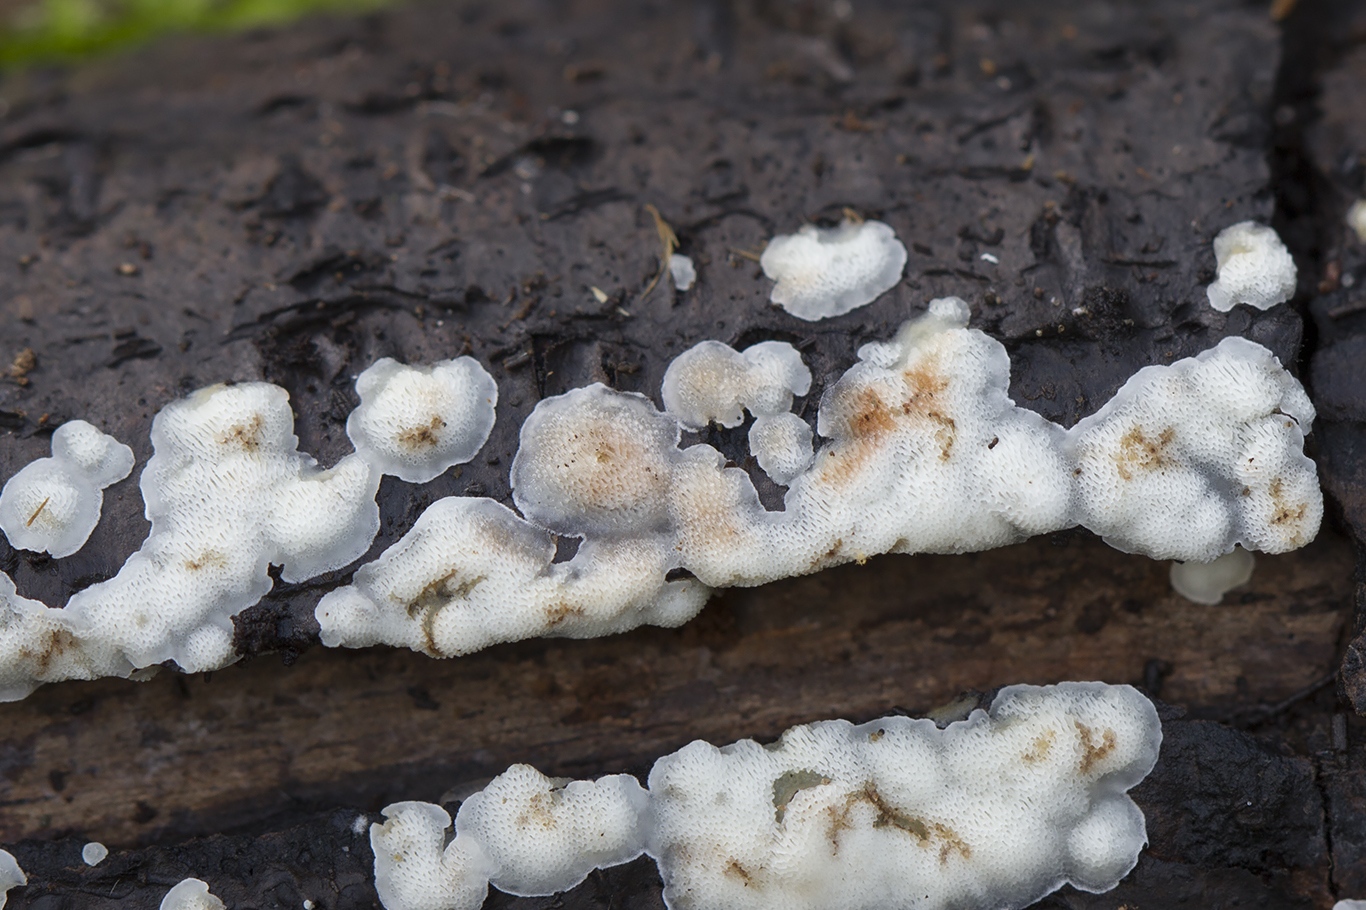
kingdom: Fungi
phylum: Basidiomycota
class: Agaricomycetes
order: Polyporales
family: Meripilaceae
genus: Rigidoporus
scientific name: Rigidoporus sanguinolentus
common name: blod-skorpeporesvamp
